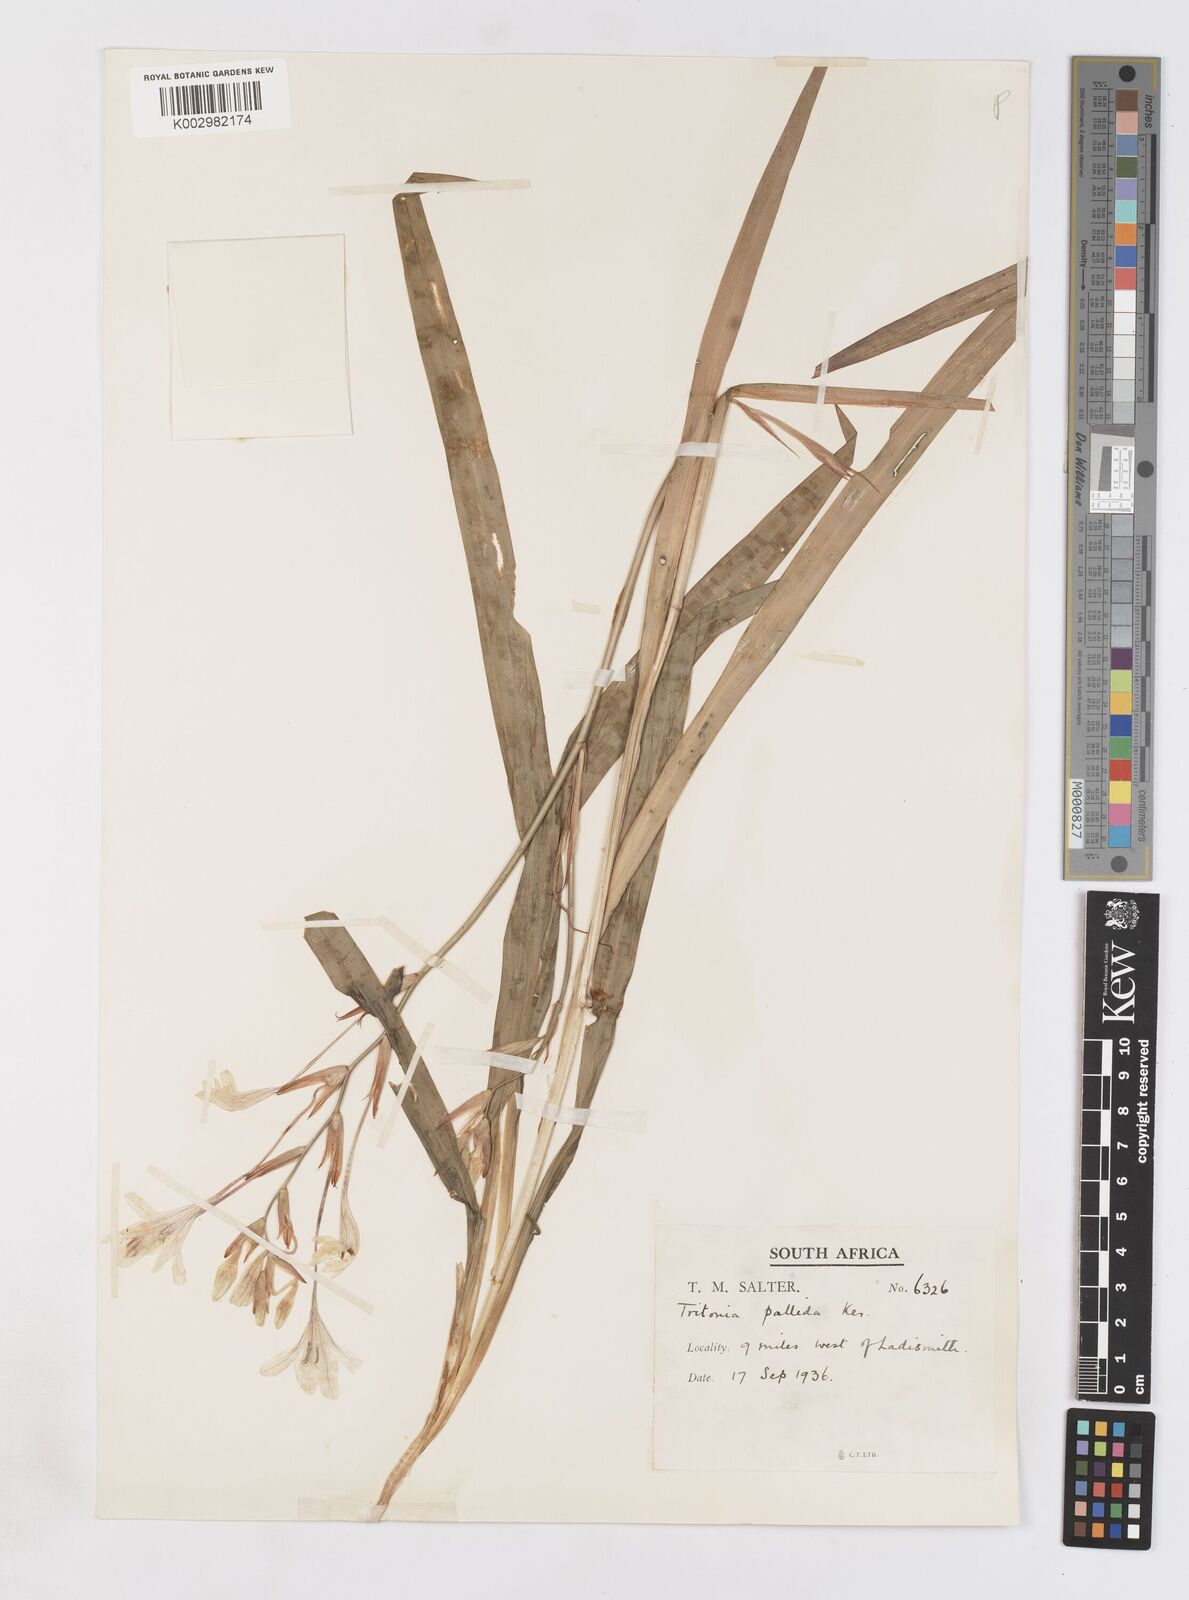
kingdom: Plantae
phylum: Tracheophyta
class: Liliopsida
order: Asparagales
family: Iridaceae
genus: Tritonia
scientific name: Tritonia pallida
